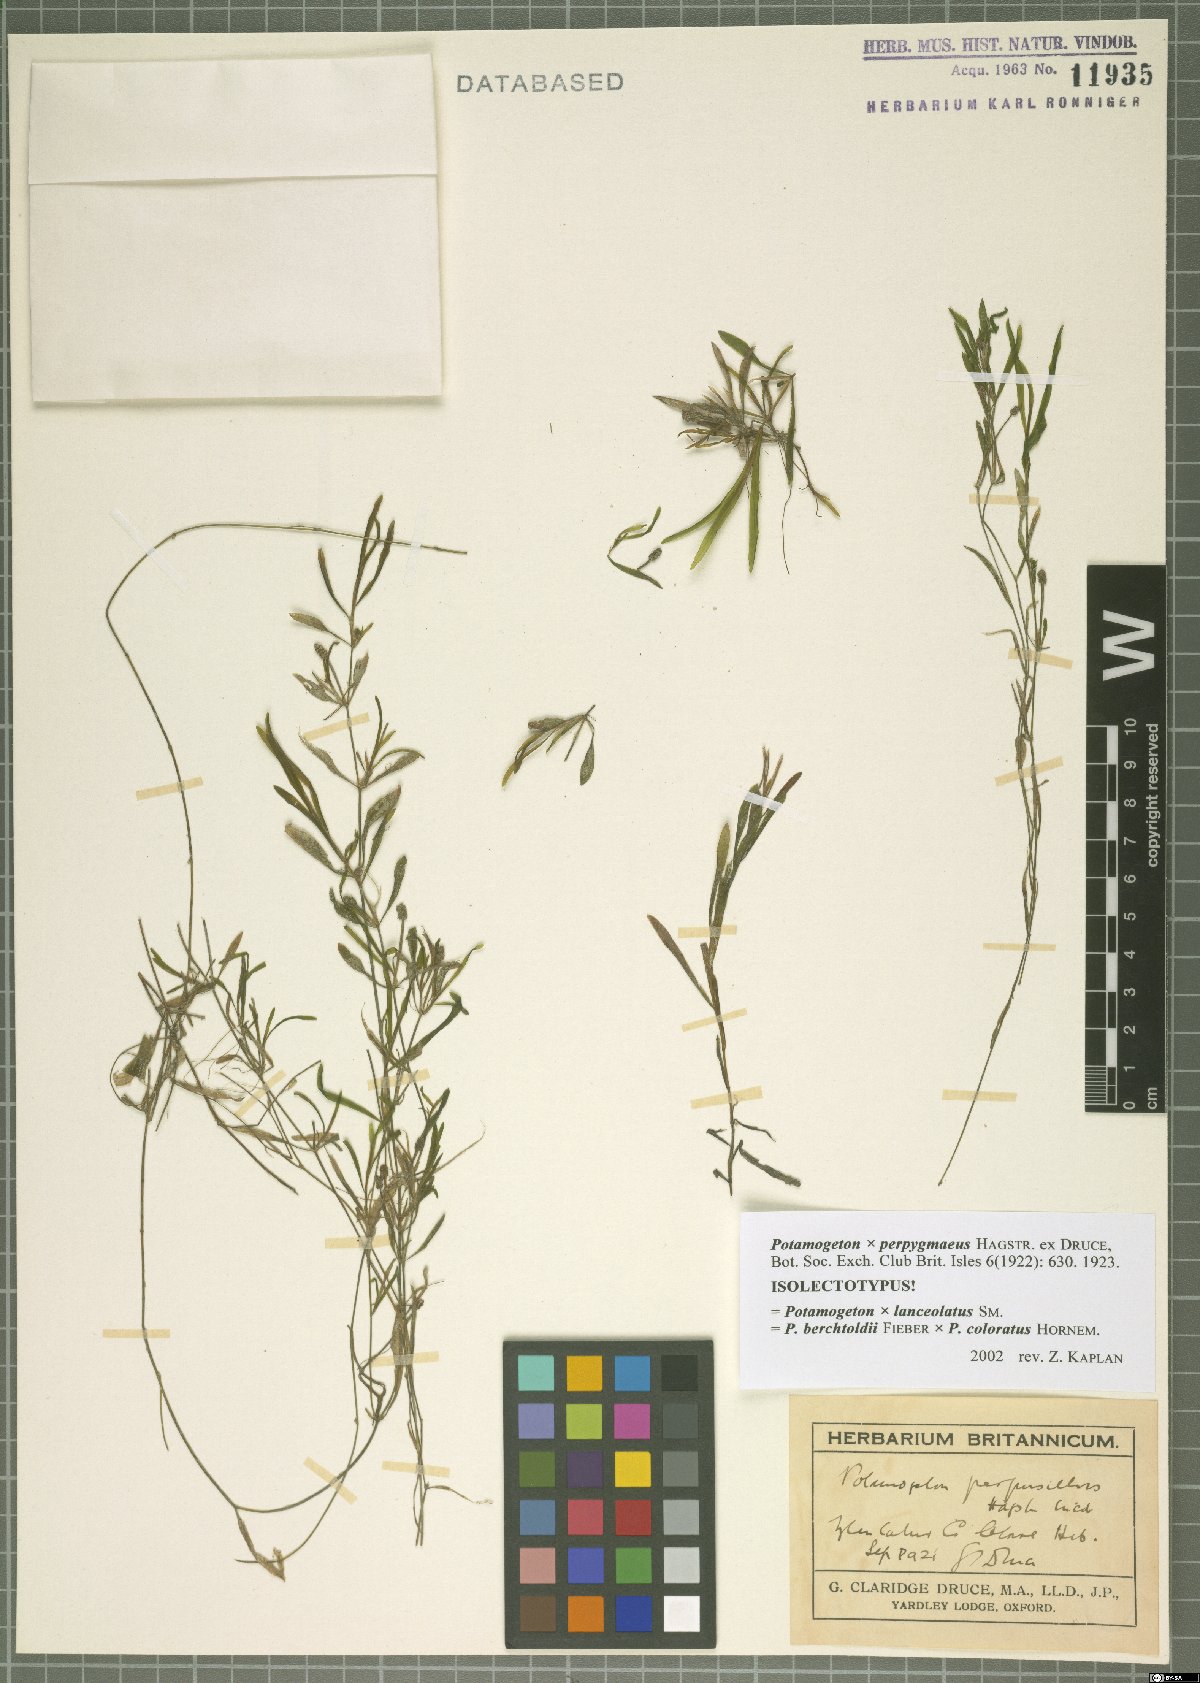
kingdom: Plantae
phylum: Tracheophyta
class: Liliopsida
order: Alismatales
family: Potamogetonaceae
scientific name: Potamogetonaceae
